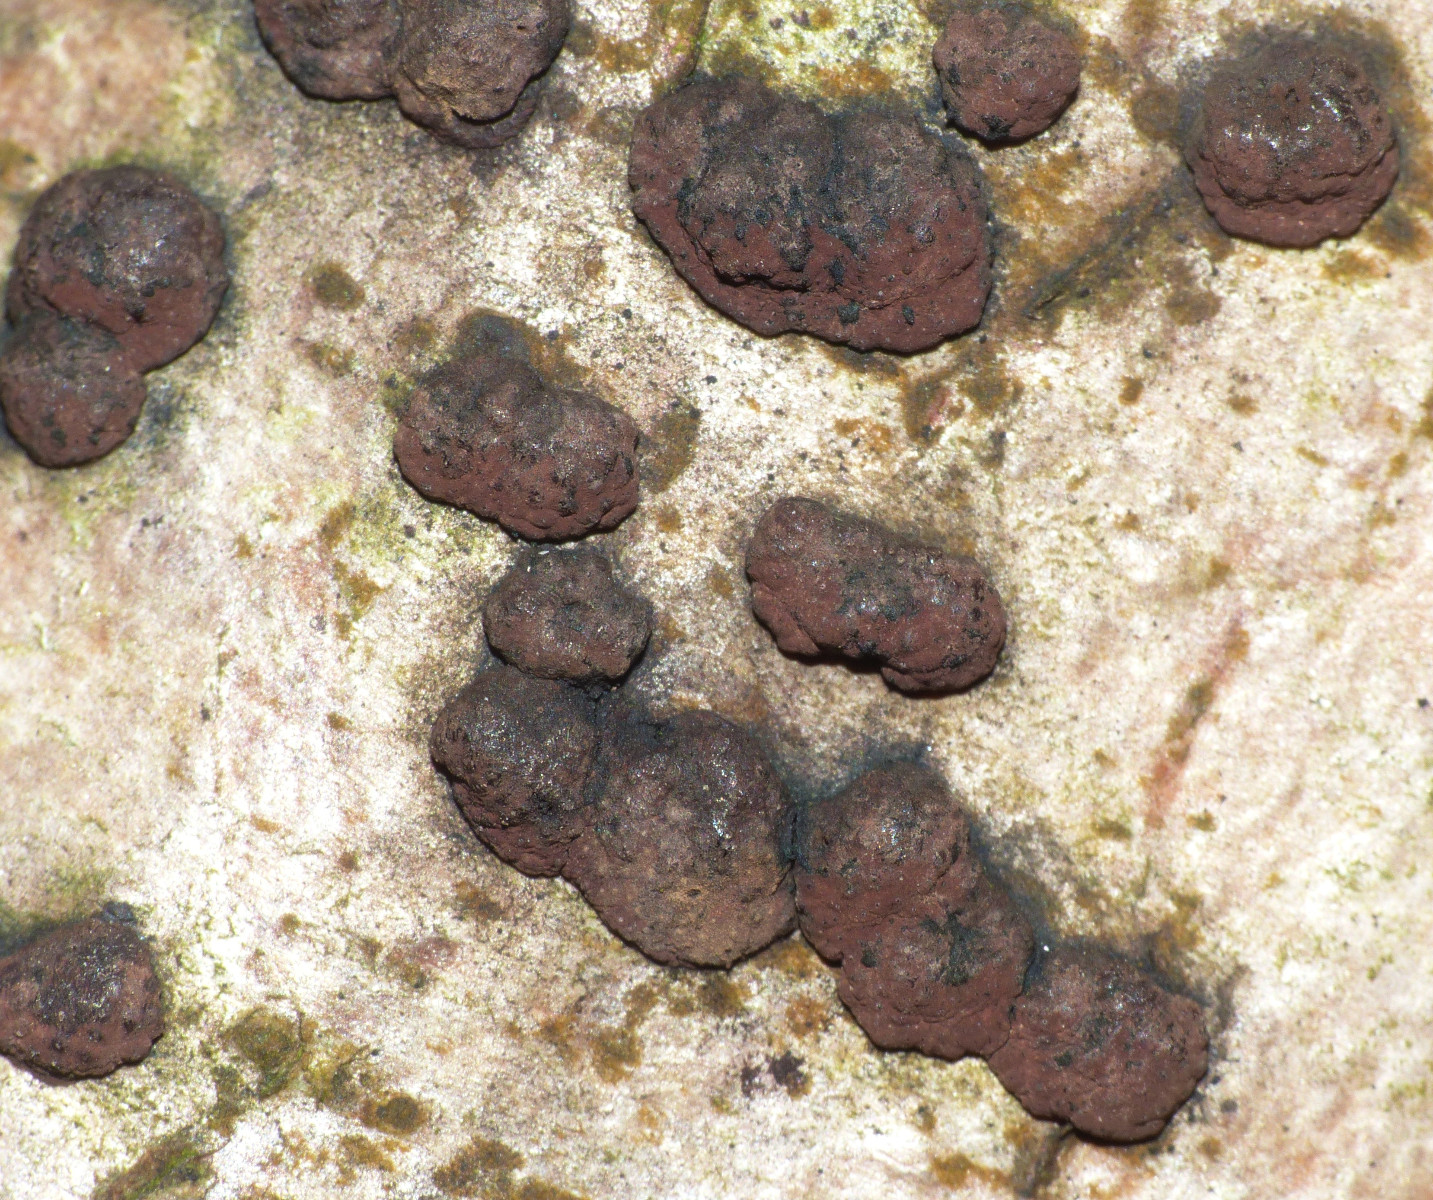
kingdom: Fungi
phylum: Ascomycota
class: Sordariomycetes
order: Xylariales
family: Hypoxylaceae
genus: Hypoxylon
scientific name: Hypoxylon fuscum
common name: kegleformet kulbær
